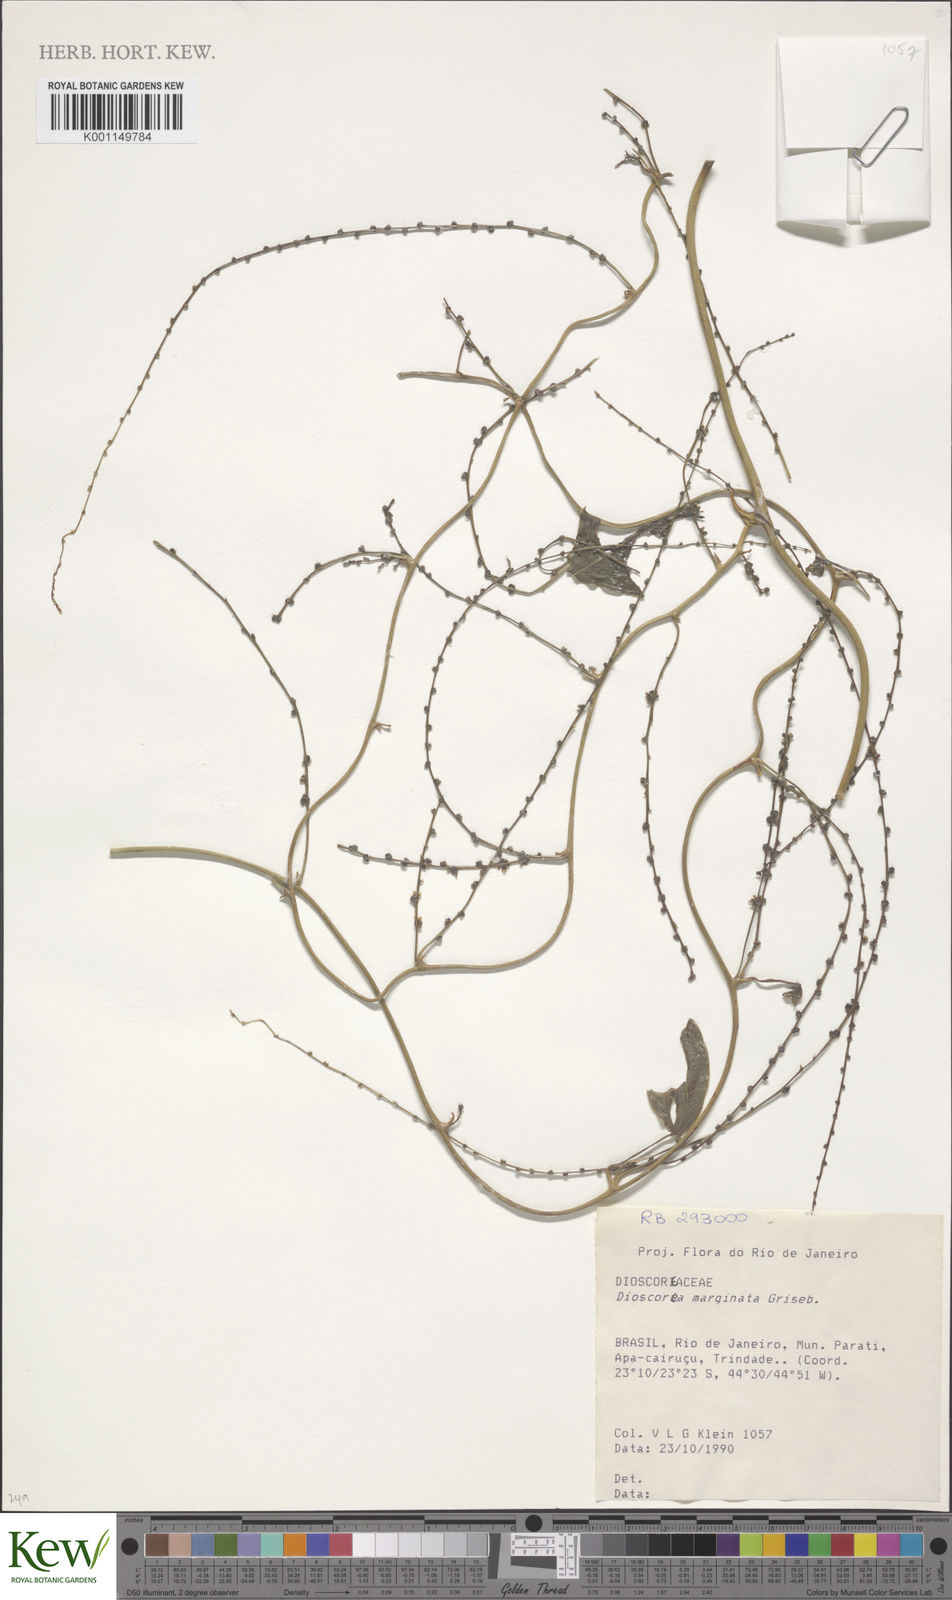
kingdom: Plantae
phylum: Tracheophyta
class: Liliopsida
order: Dioscoreales
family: Dioscoreaceae
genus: Dioscorea
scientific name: Dioscorea marginata
